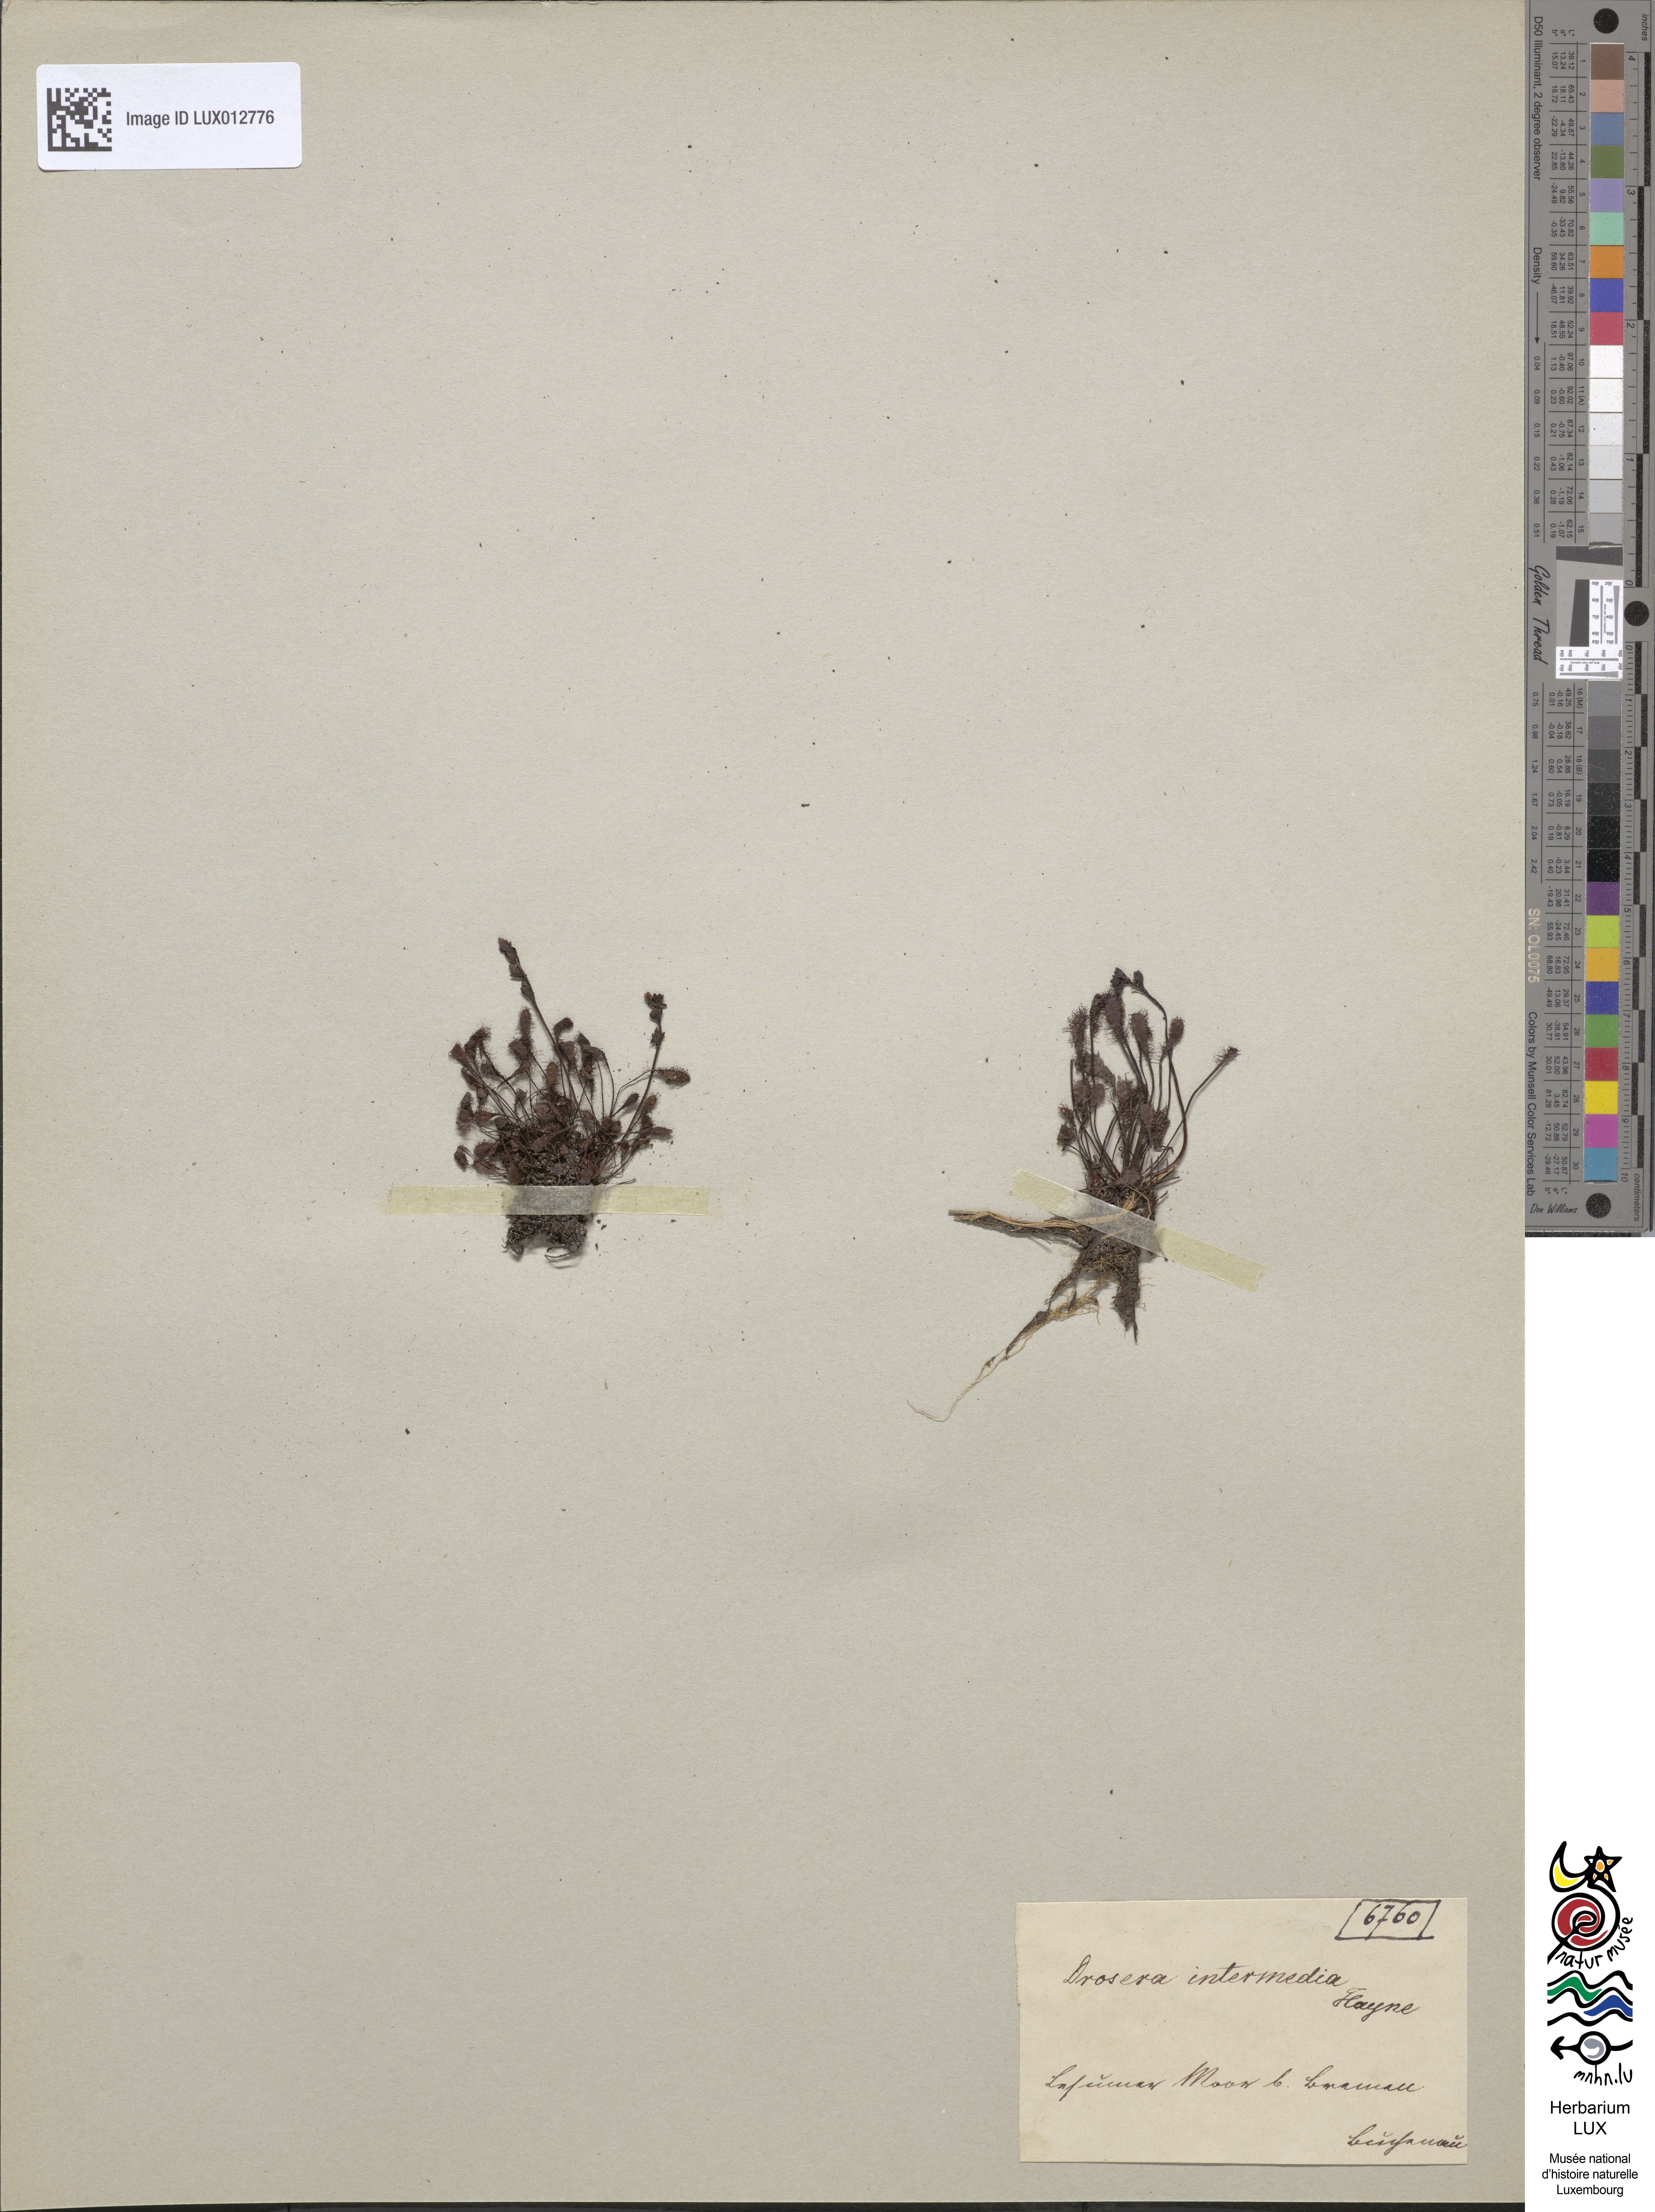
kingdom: Plantae
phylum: Tracheophyta
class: Magnoliopsida
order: Caryophyllales
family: Droseraceae
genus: Drosera
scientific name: Drosera intermedia
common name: Oblong-leaved sundew
